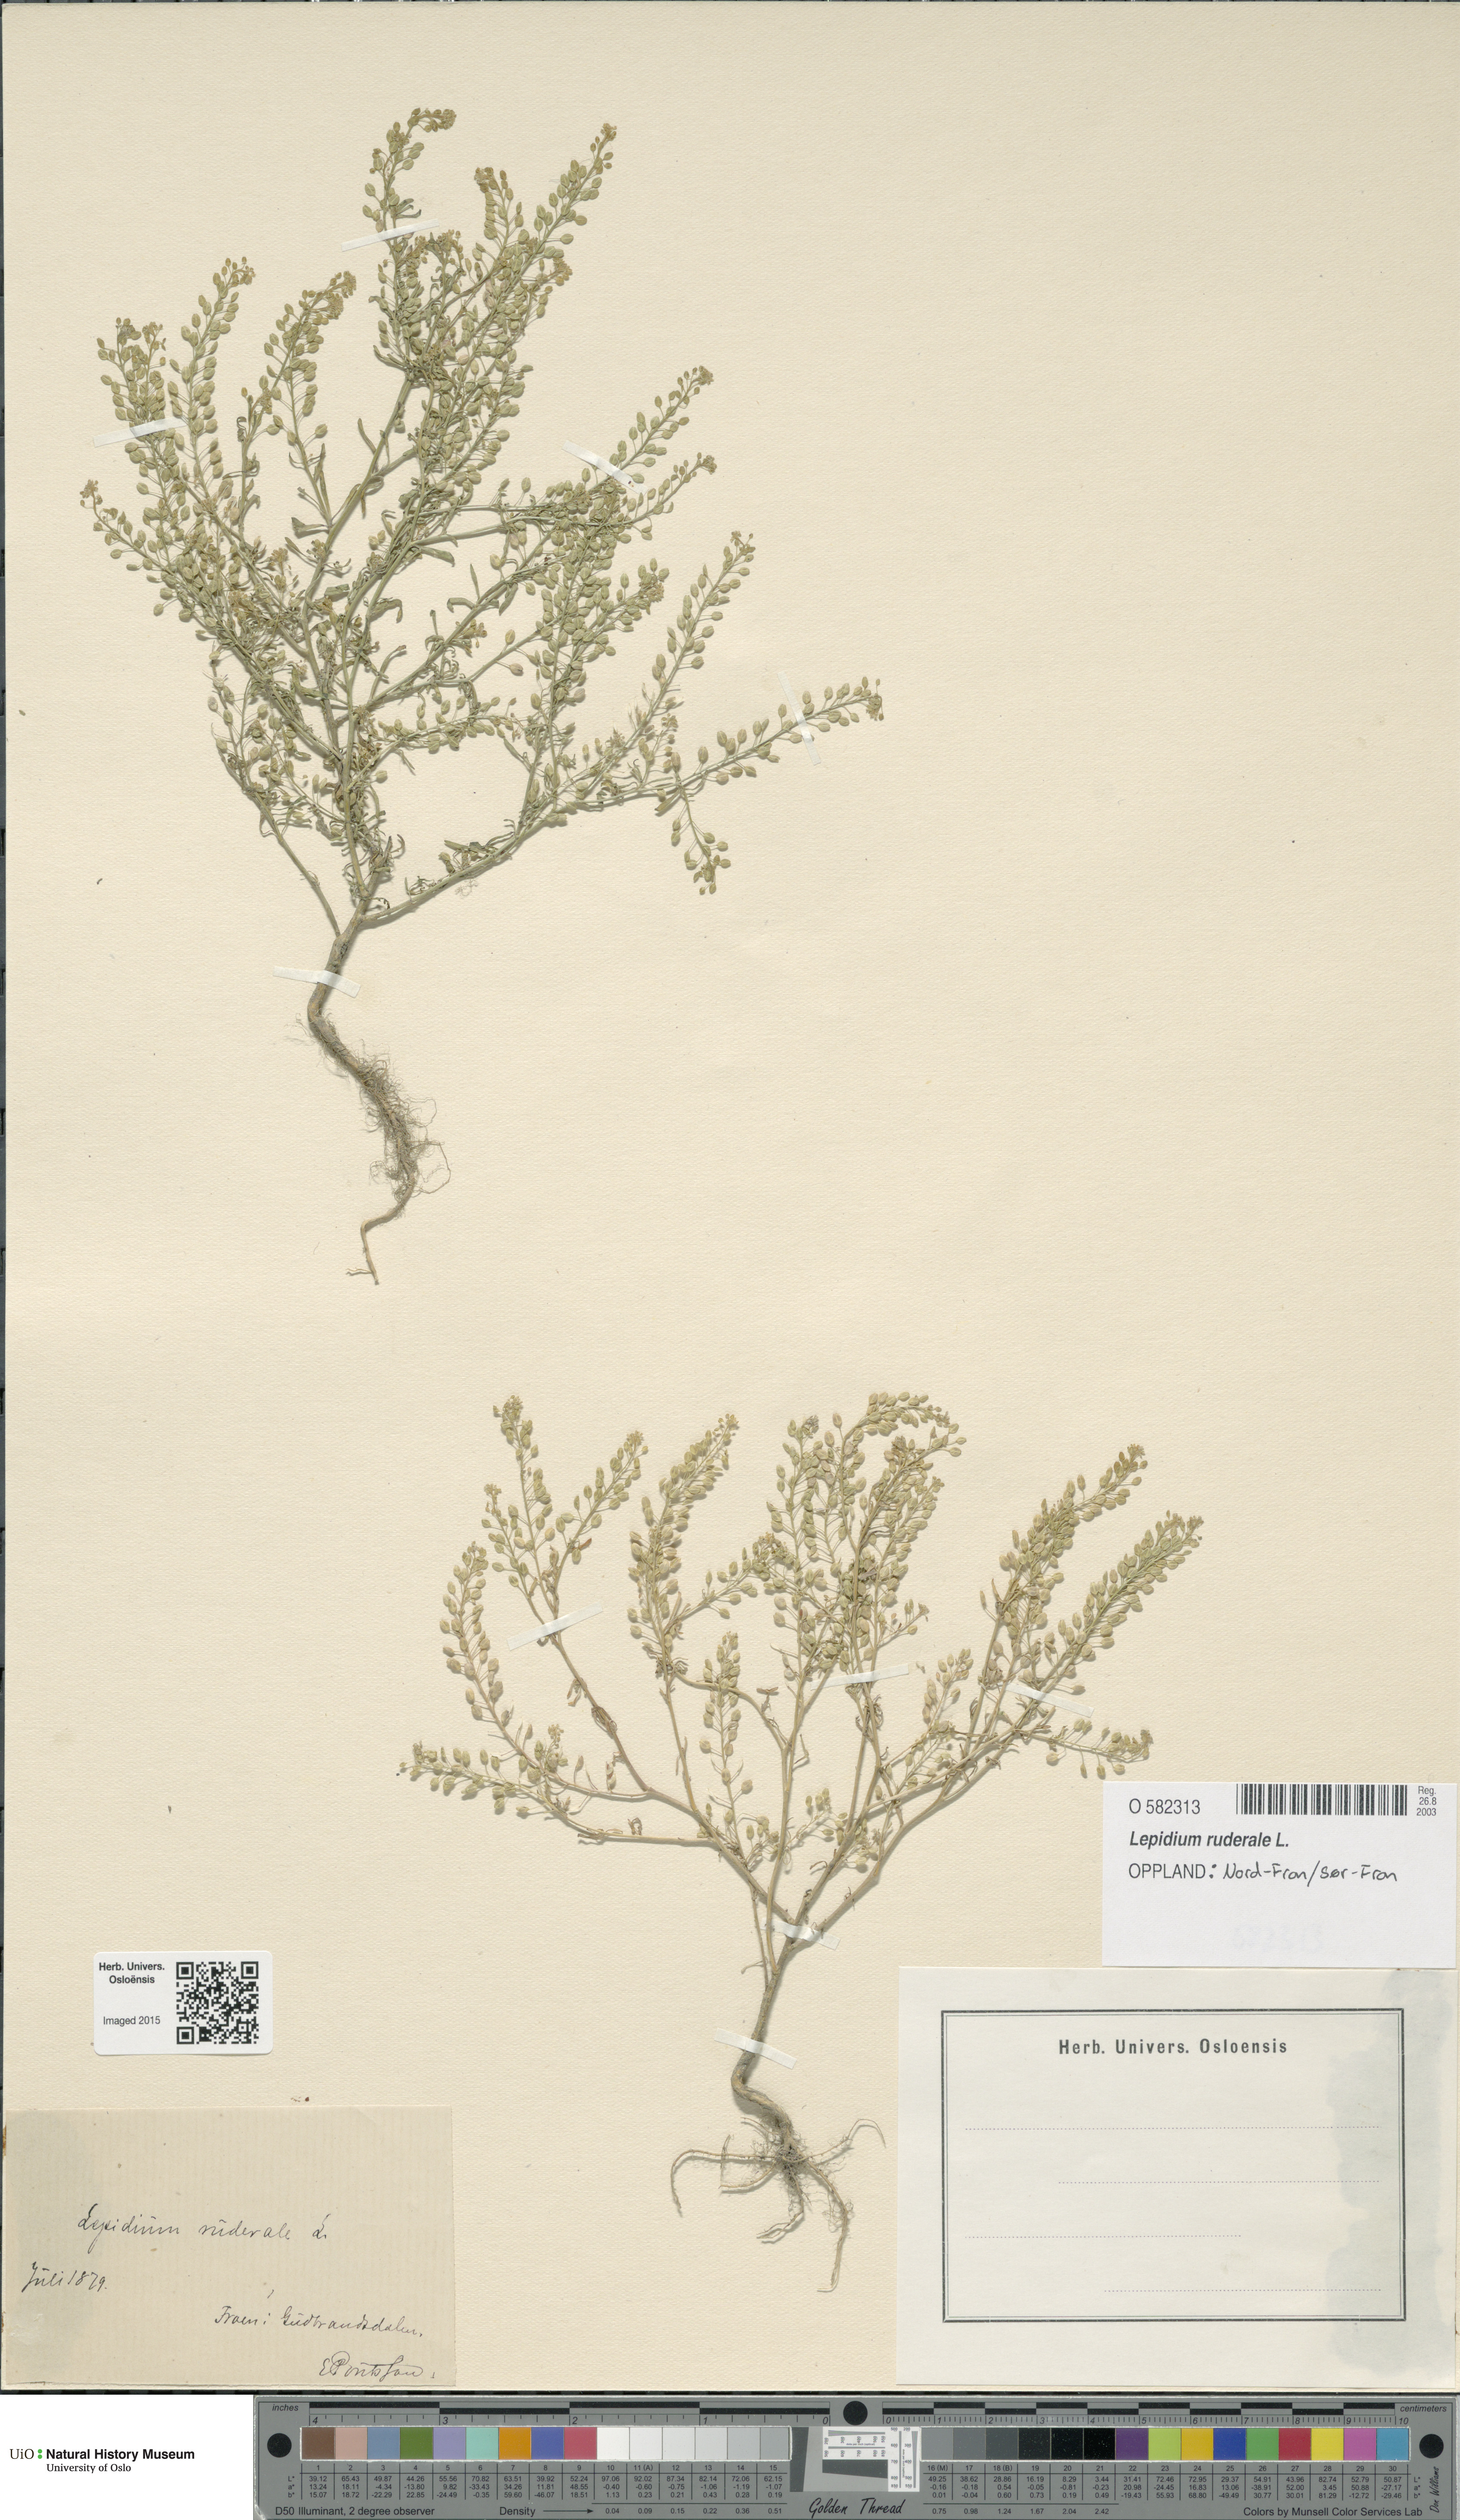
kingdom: Plantae
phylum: Tracheophyta
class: Magnoliopsida
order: Brassicales
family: Brassicaceae
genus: Lepidium
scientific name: Lepidium ruderale
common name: Narrow-leaved pepperwort
